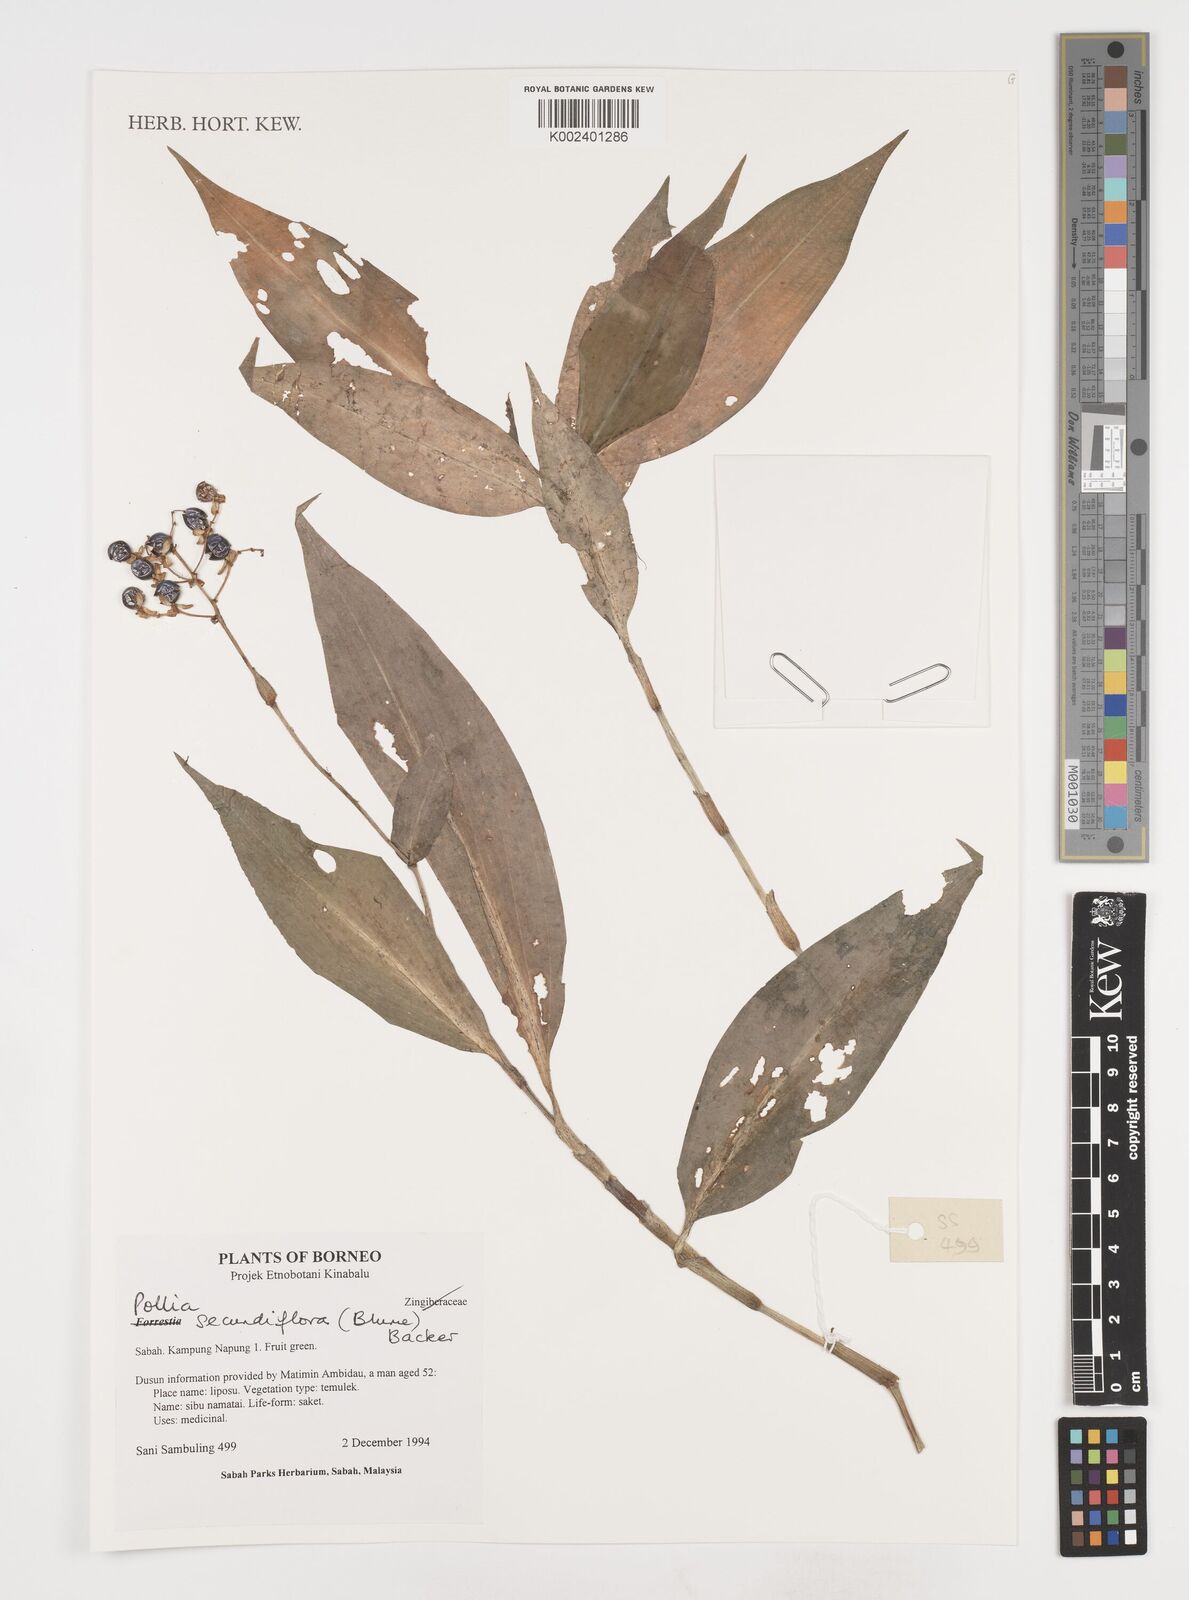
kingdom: Plantae
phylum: Tracheophyta
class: Liliopsida
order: Commelinales
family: Commelinaceae
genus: Pollia
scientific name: Pollia secundiflora
